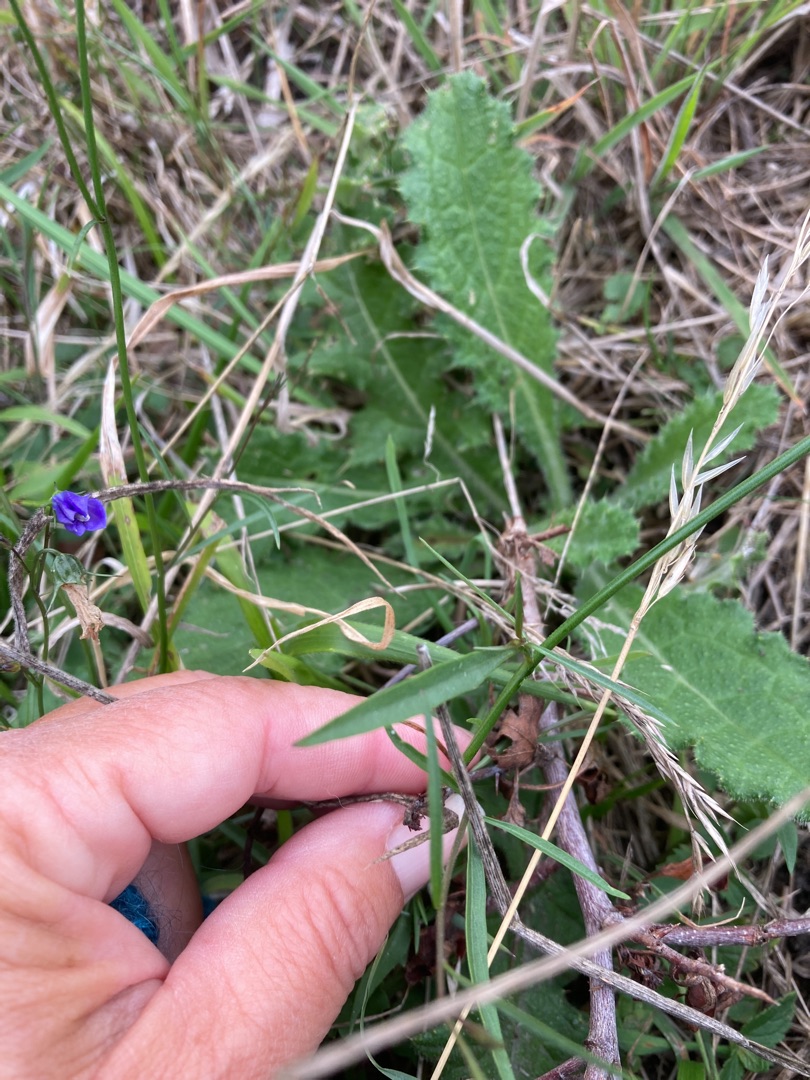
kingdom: Plantae
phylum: Tracheophyta
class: Magnoliopsida
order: Asterales
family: Campanulaceae
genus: Campanula
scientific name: Campanula rotundifolia
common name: Liden klokke
